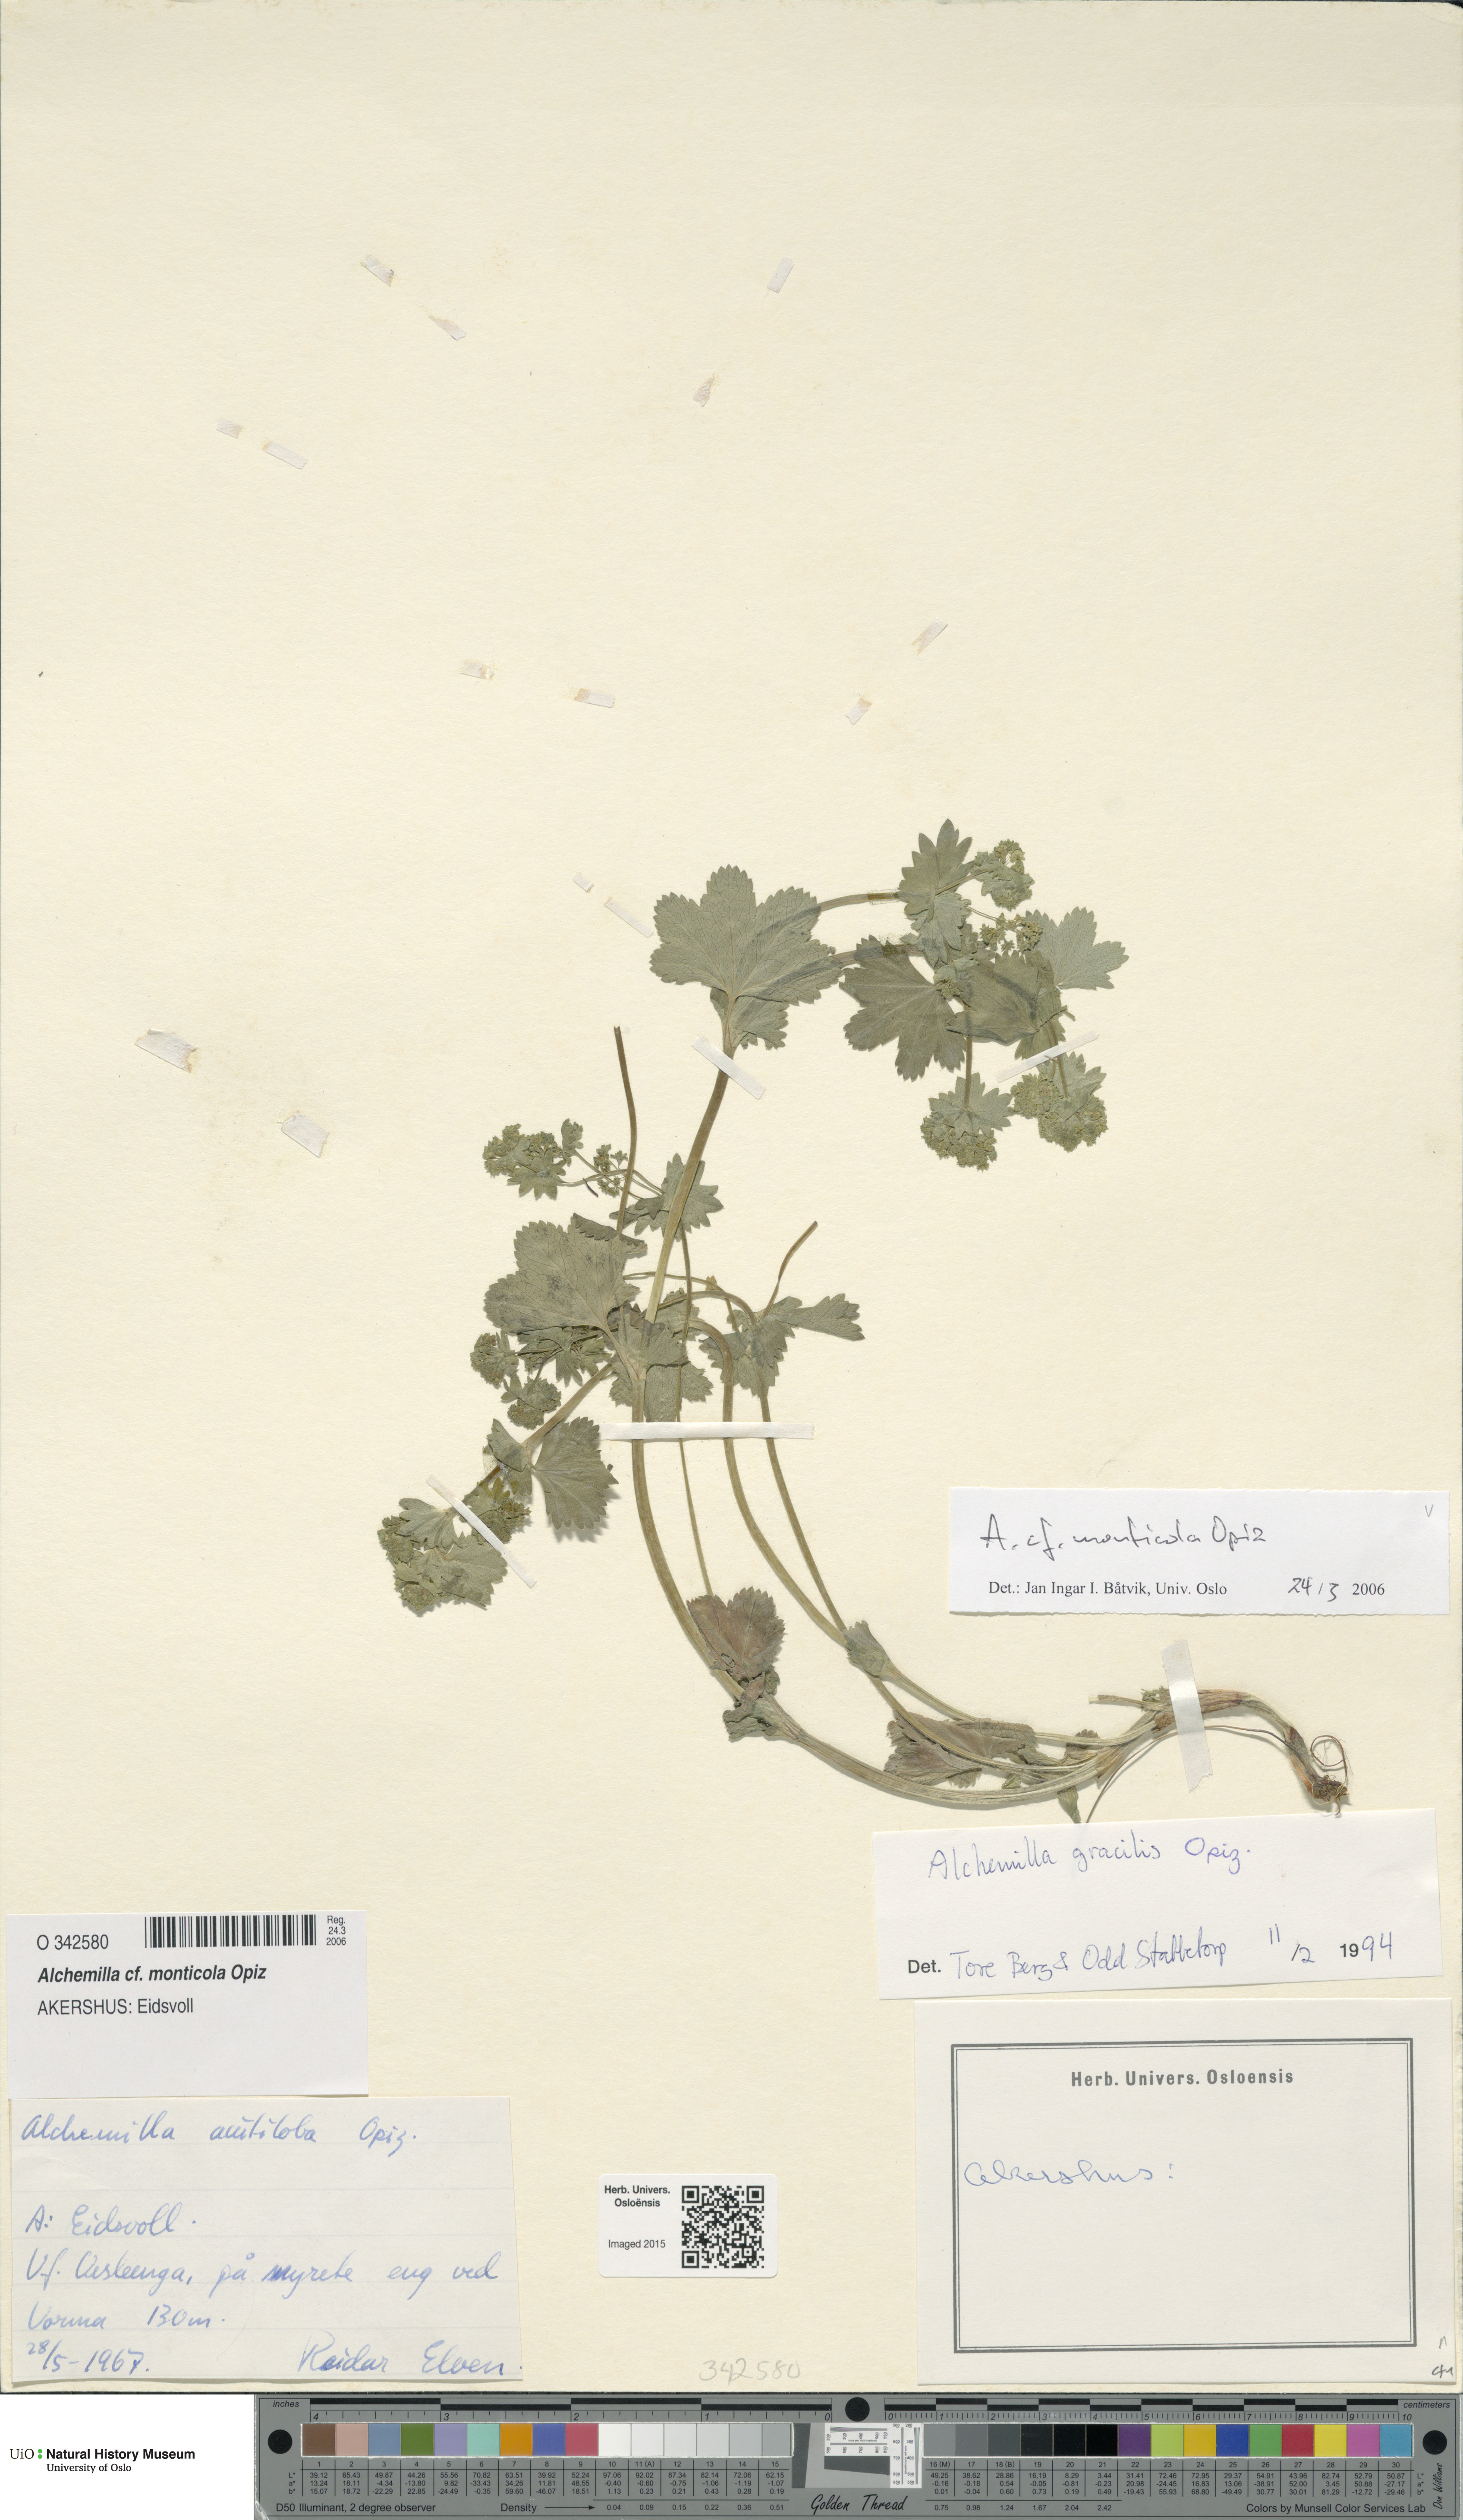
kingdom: Plantae
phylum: Tracheophyta
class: Magnoliopsida
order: Rosales
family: Rosaceae
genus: Alchemilla
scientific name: Alchemilla monticola
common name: Hairy lady's mantle
